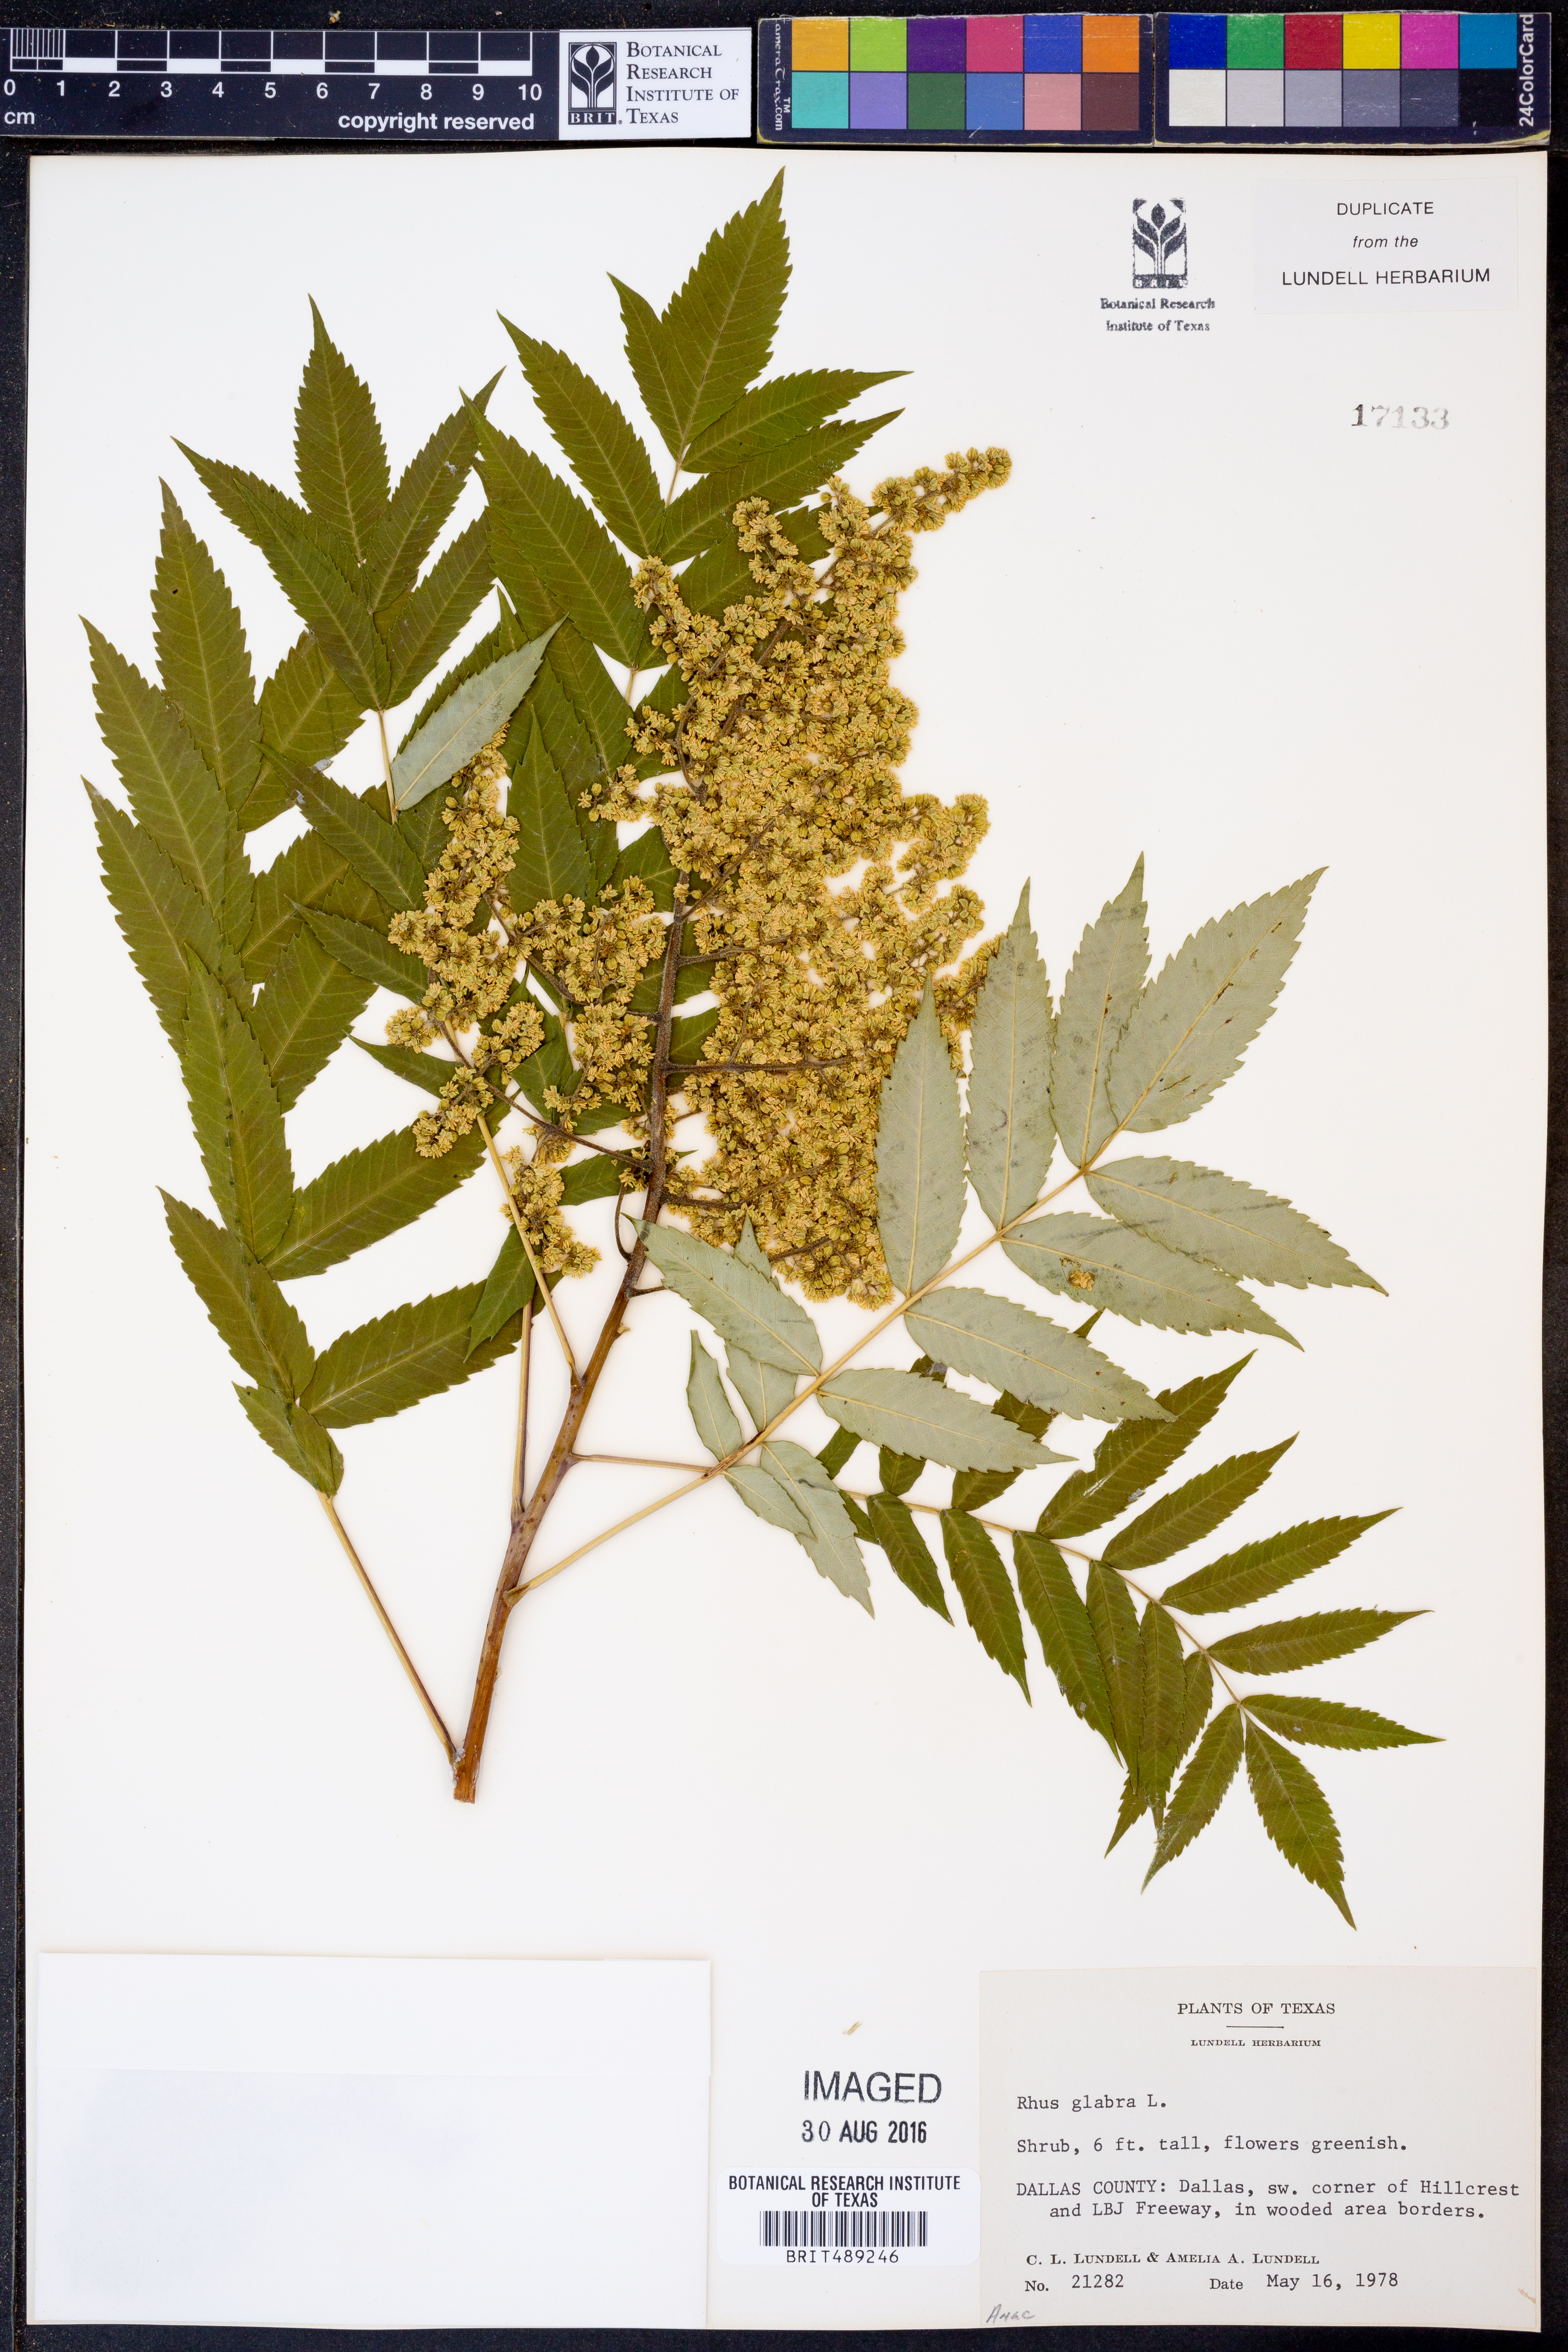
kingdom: Plantae
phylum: Tracheophyta
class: Magnoliopsida
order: Sapindales
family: Anacardiaceae
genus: Rhus
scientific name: Rhus glabra
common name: Scarlet sumac
